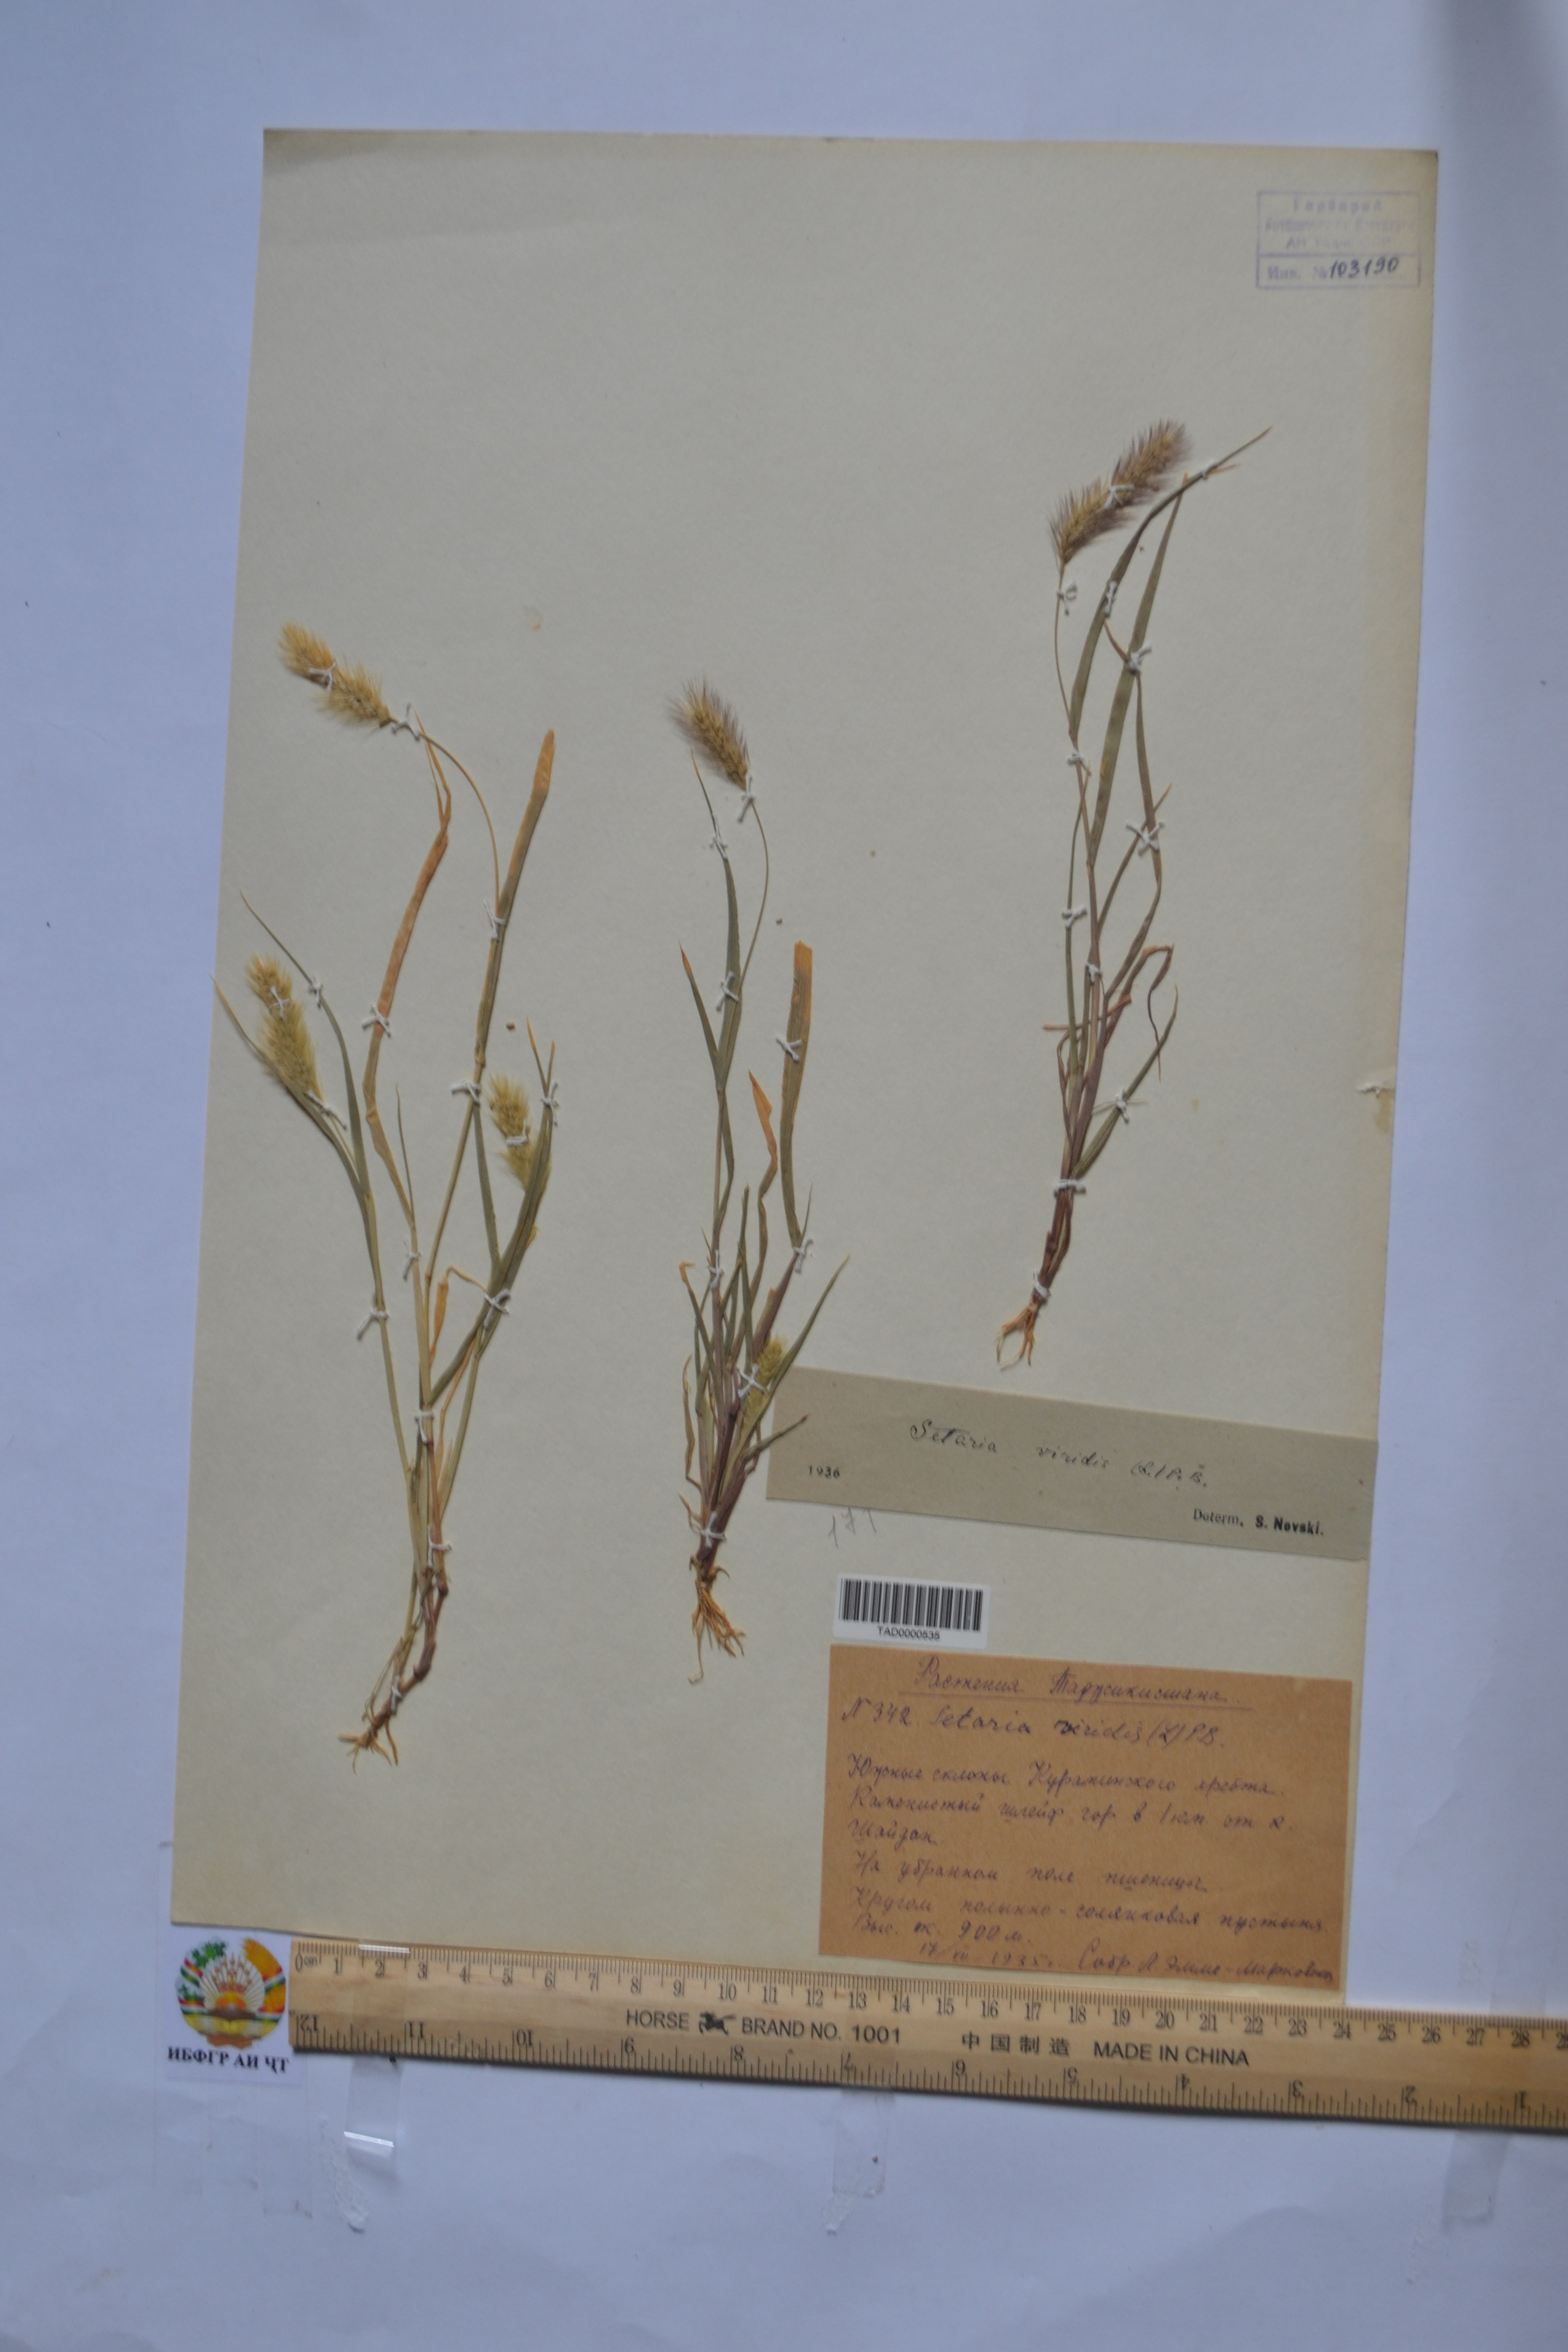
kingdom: Plantae
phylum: Tracheophyta
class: Liliopsida
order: Poales
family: Poaceae
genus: Setaria
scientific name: Setaria viridis
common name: Green bristlegrass
